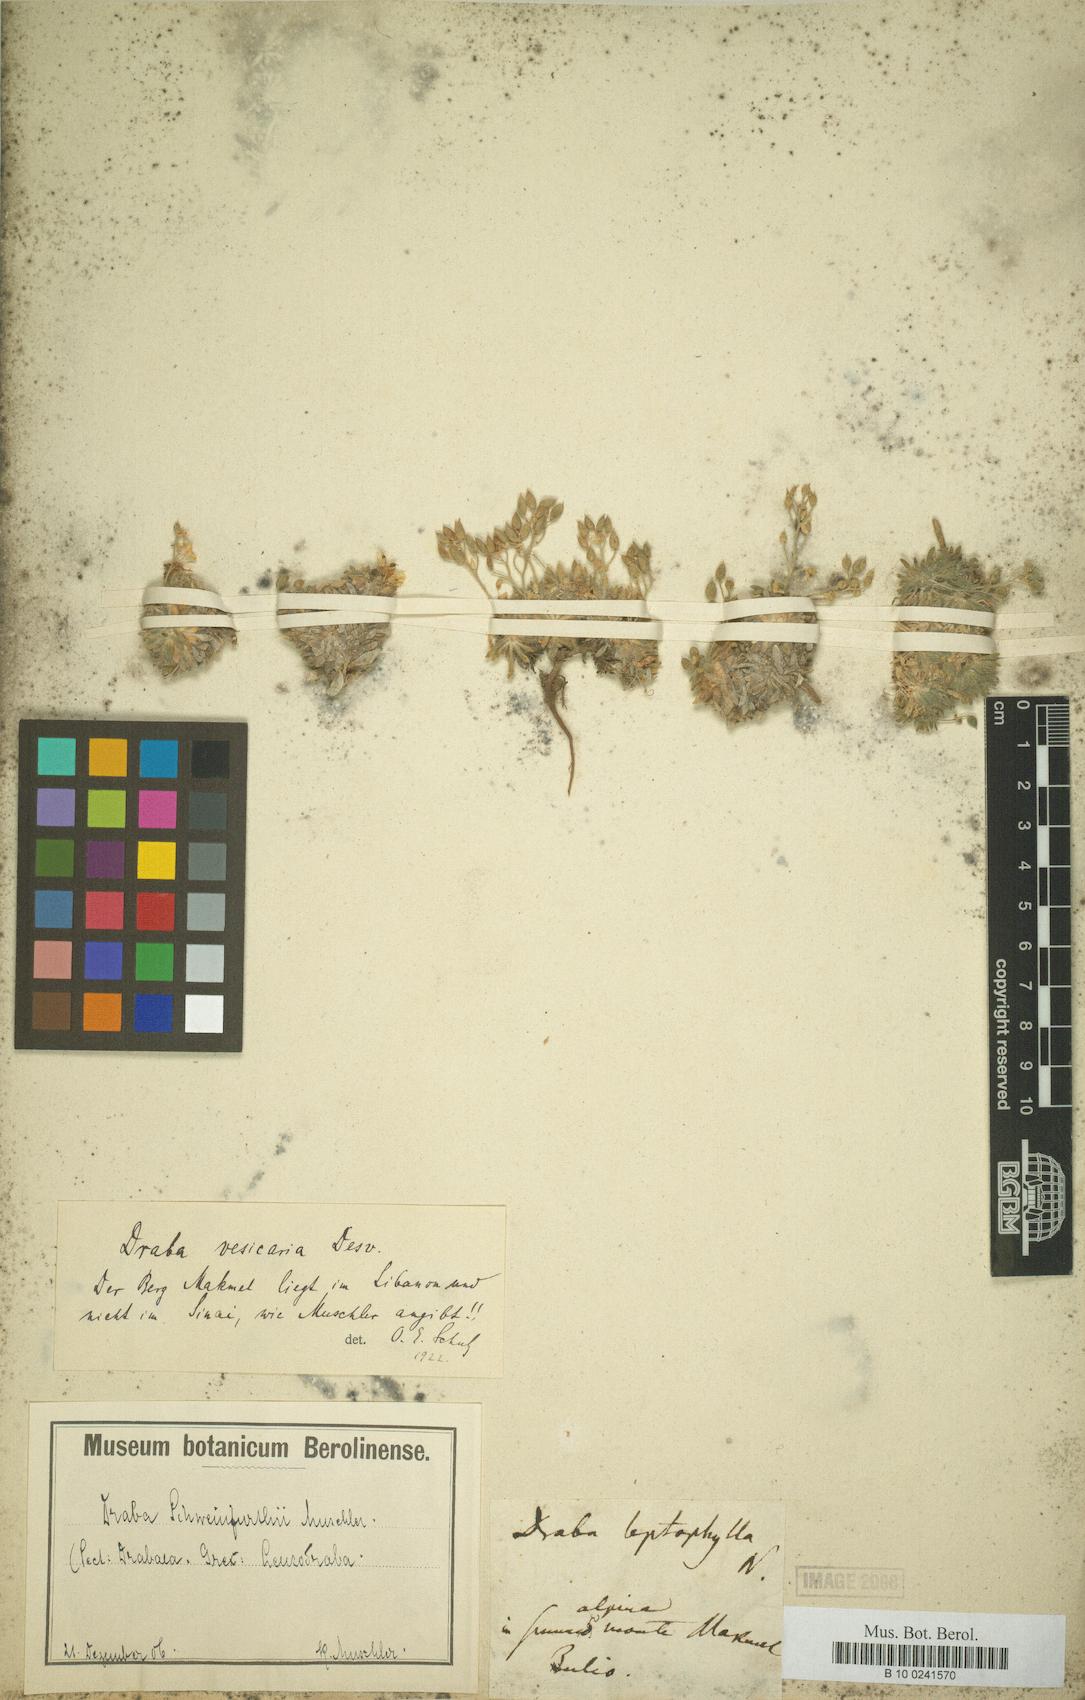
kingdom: Plantae
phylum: Tracheophyta
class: Magnoliopsida
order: Brassicales
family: Brassicaceae
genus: Draba
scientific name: Draba vesicaria
